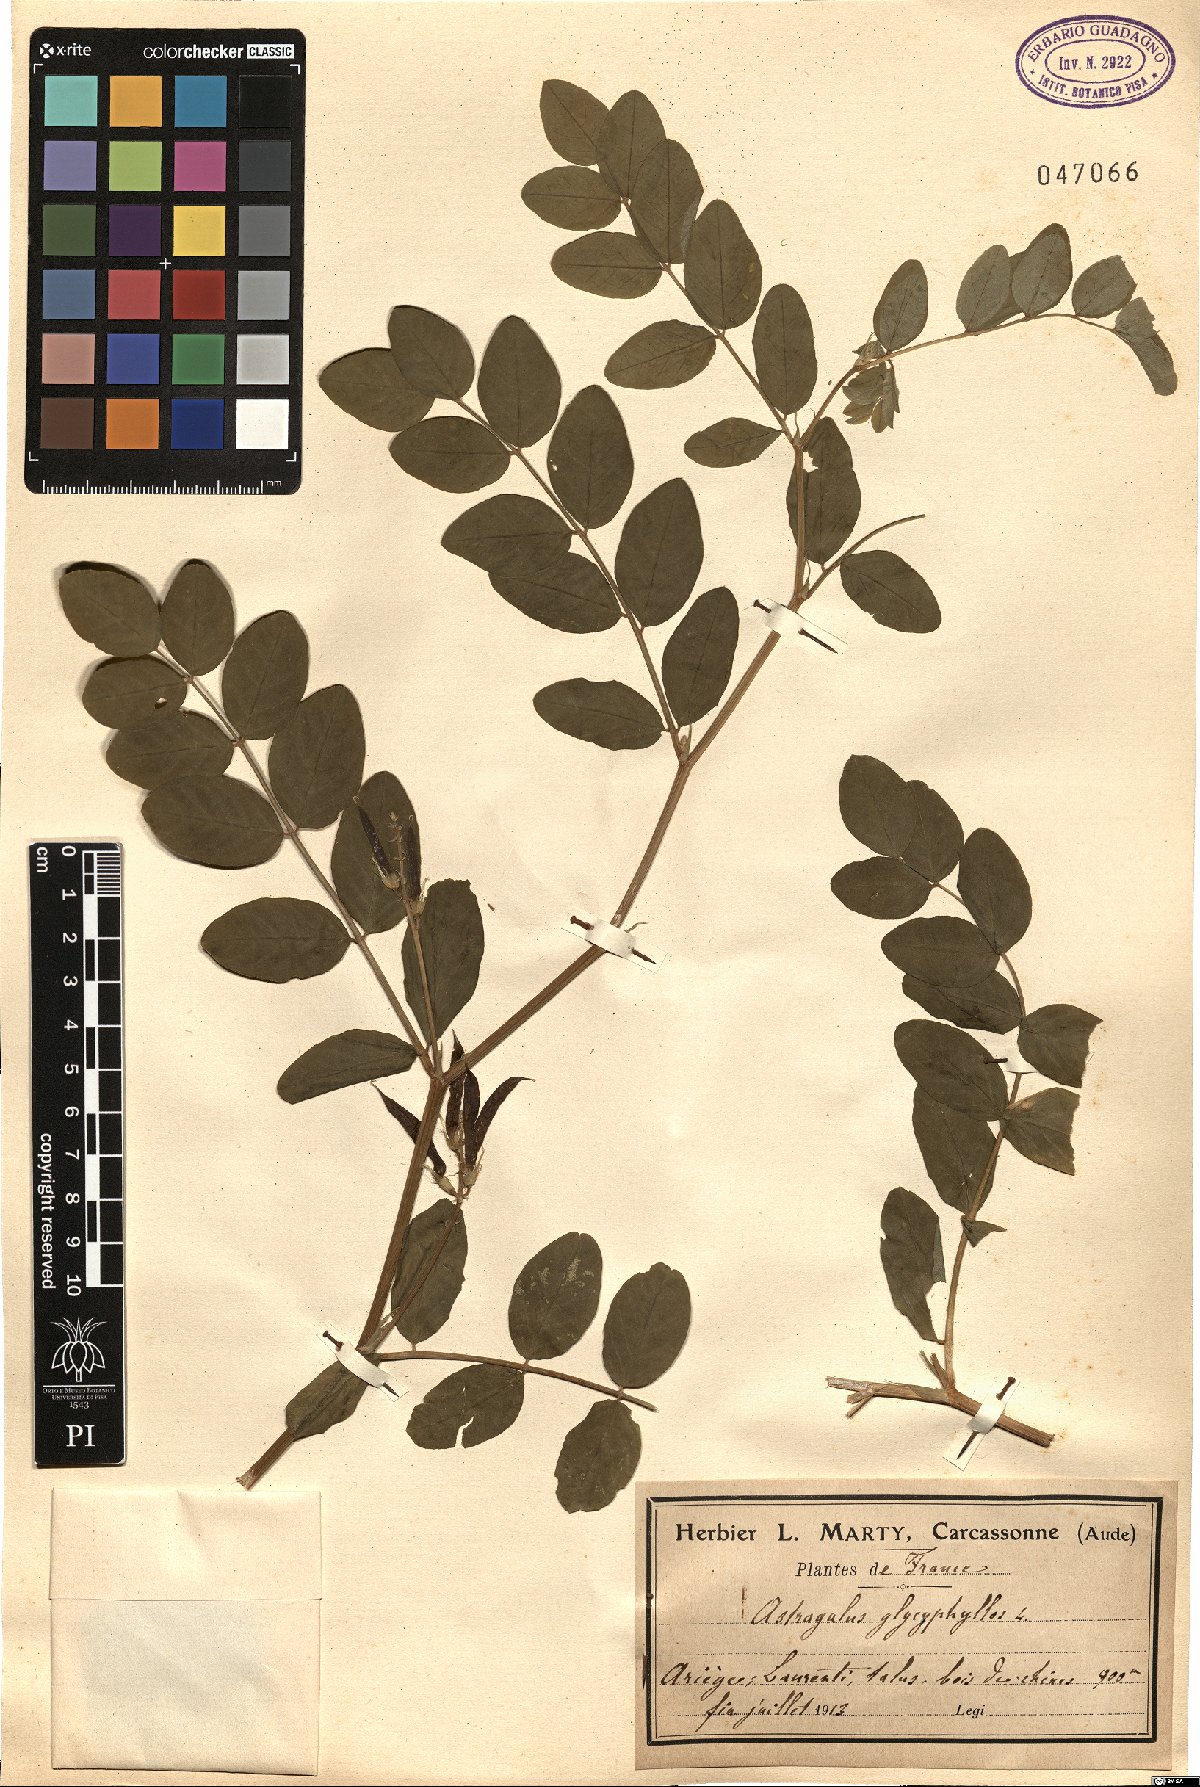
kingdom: Plantae
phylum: Tracheophyta
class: Magnoliopsida
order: Fabales
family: Fabaceae
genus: Astragalus
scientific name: Astragalus glycyphyllos
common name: Wild liquorice
